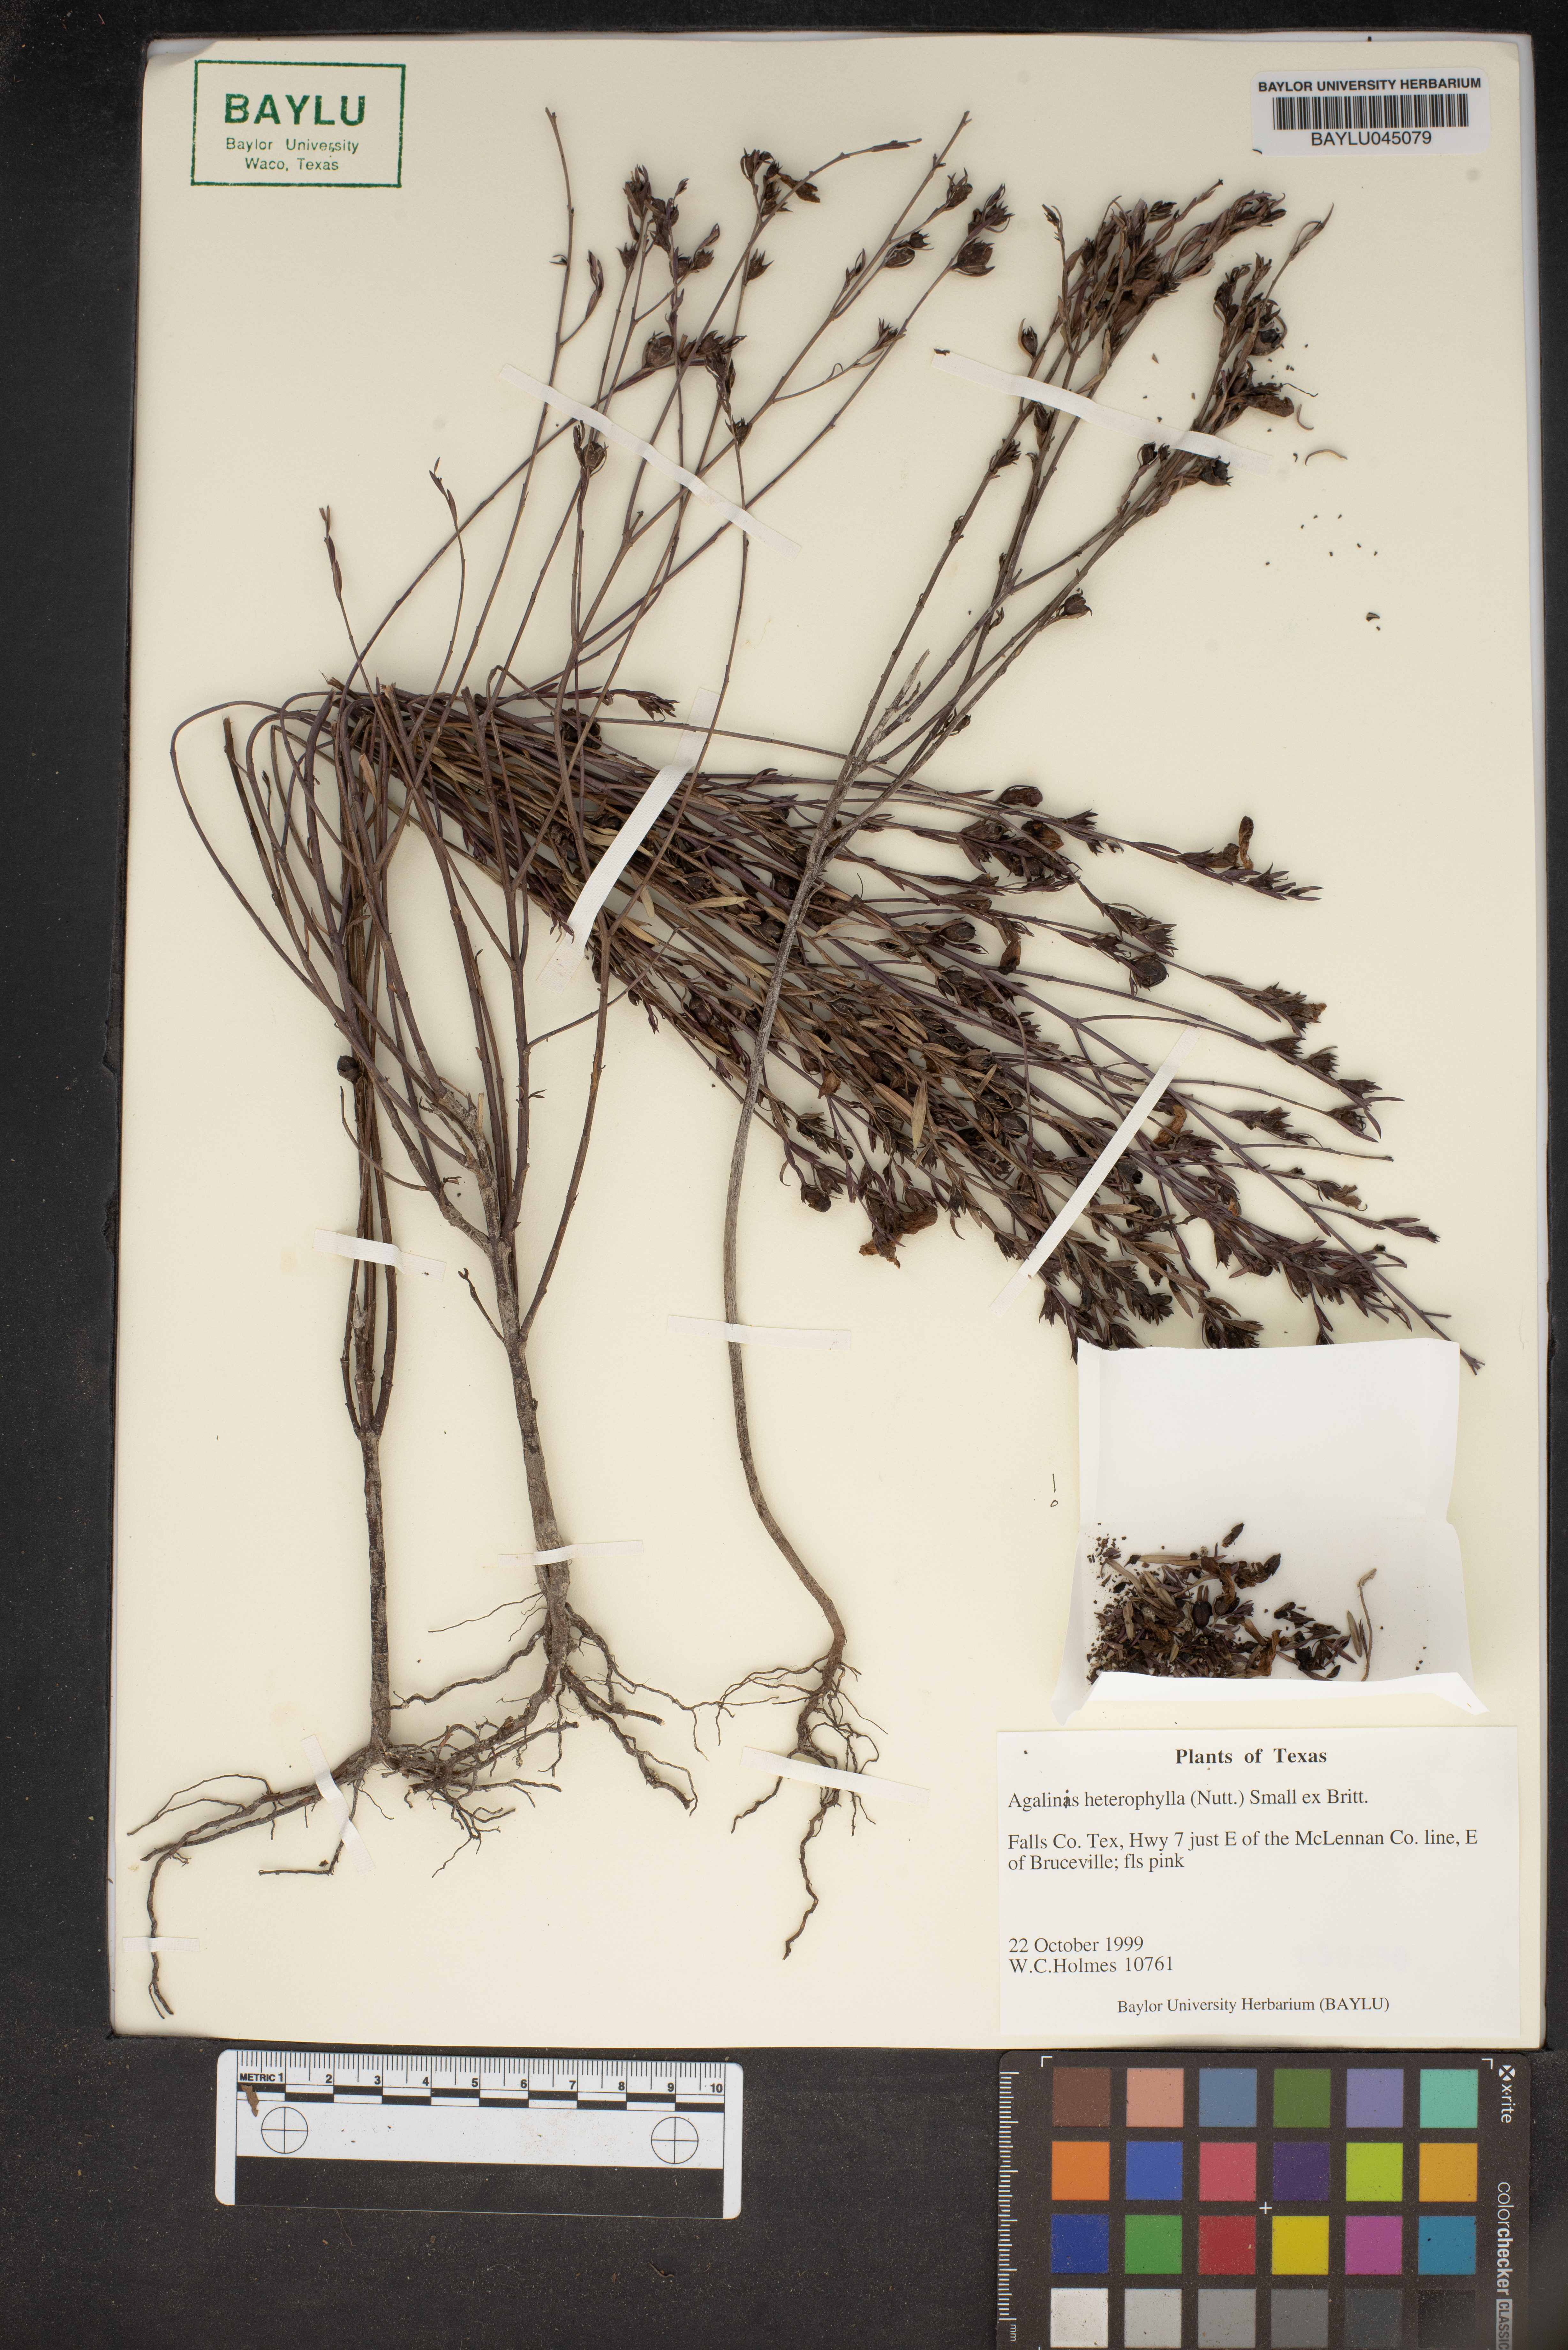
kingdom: Plantae
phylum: Tracheophyta
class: Magnoliopsida
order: Lamiales
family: Orobanchaceae
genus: Agalinis
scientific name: Agalinis heterophylla
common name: Prairie agalinis
